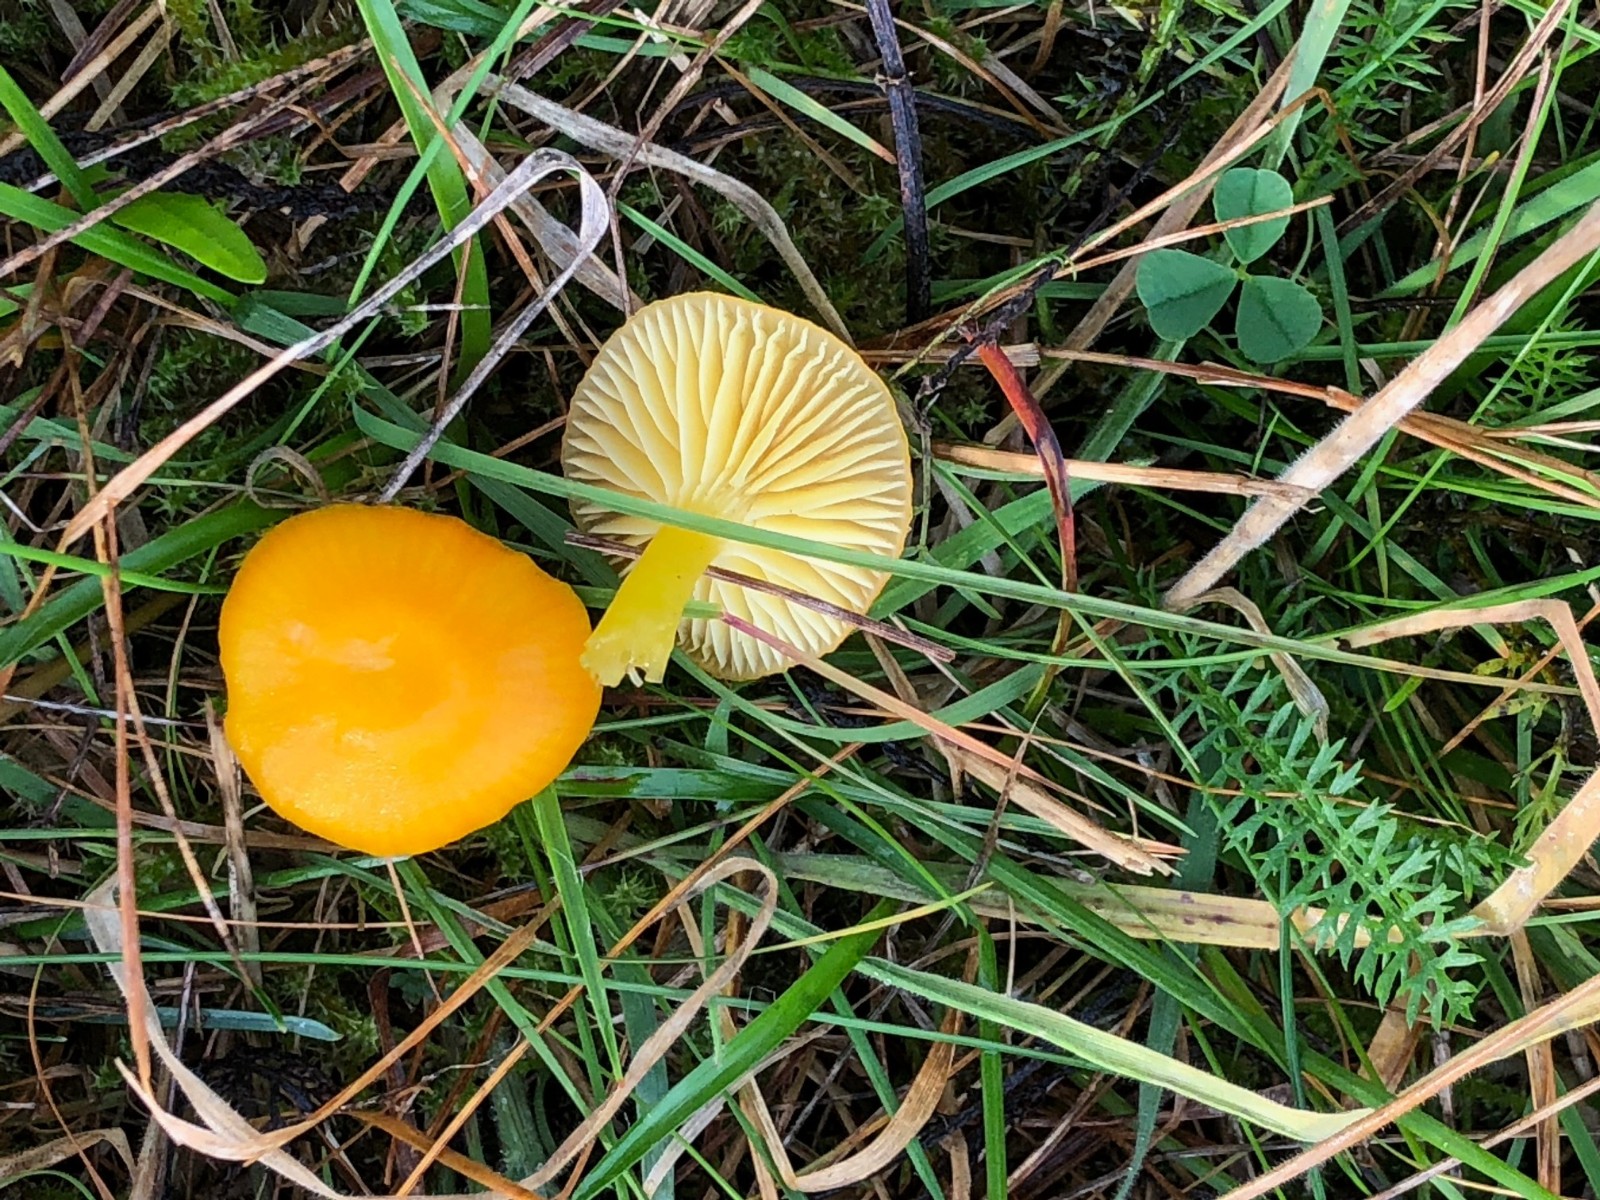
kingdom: Fungi
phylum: Basidiomycota
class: Agaricomycetes
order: Agaricales
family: Hygrophoraceae
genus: Hygrocybe
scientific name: Hygrocybe ceracea
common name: voksgul vokshat
